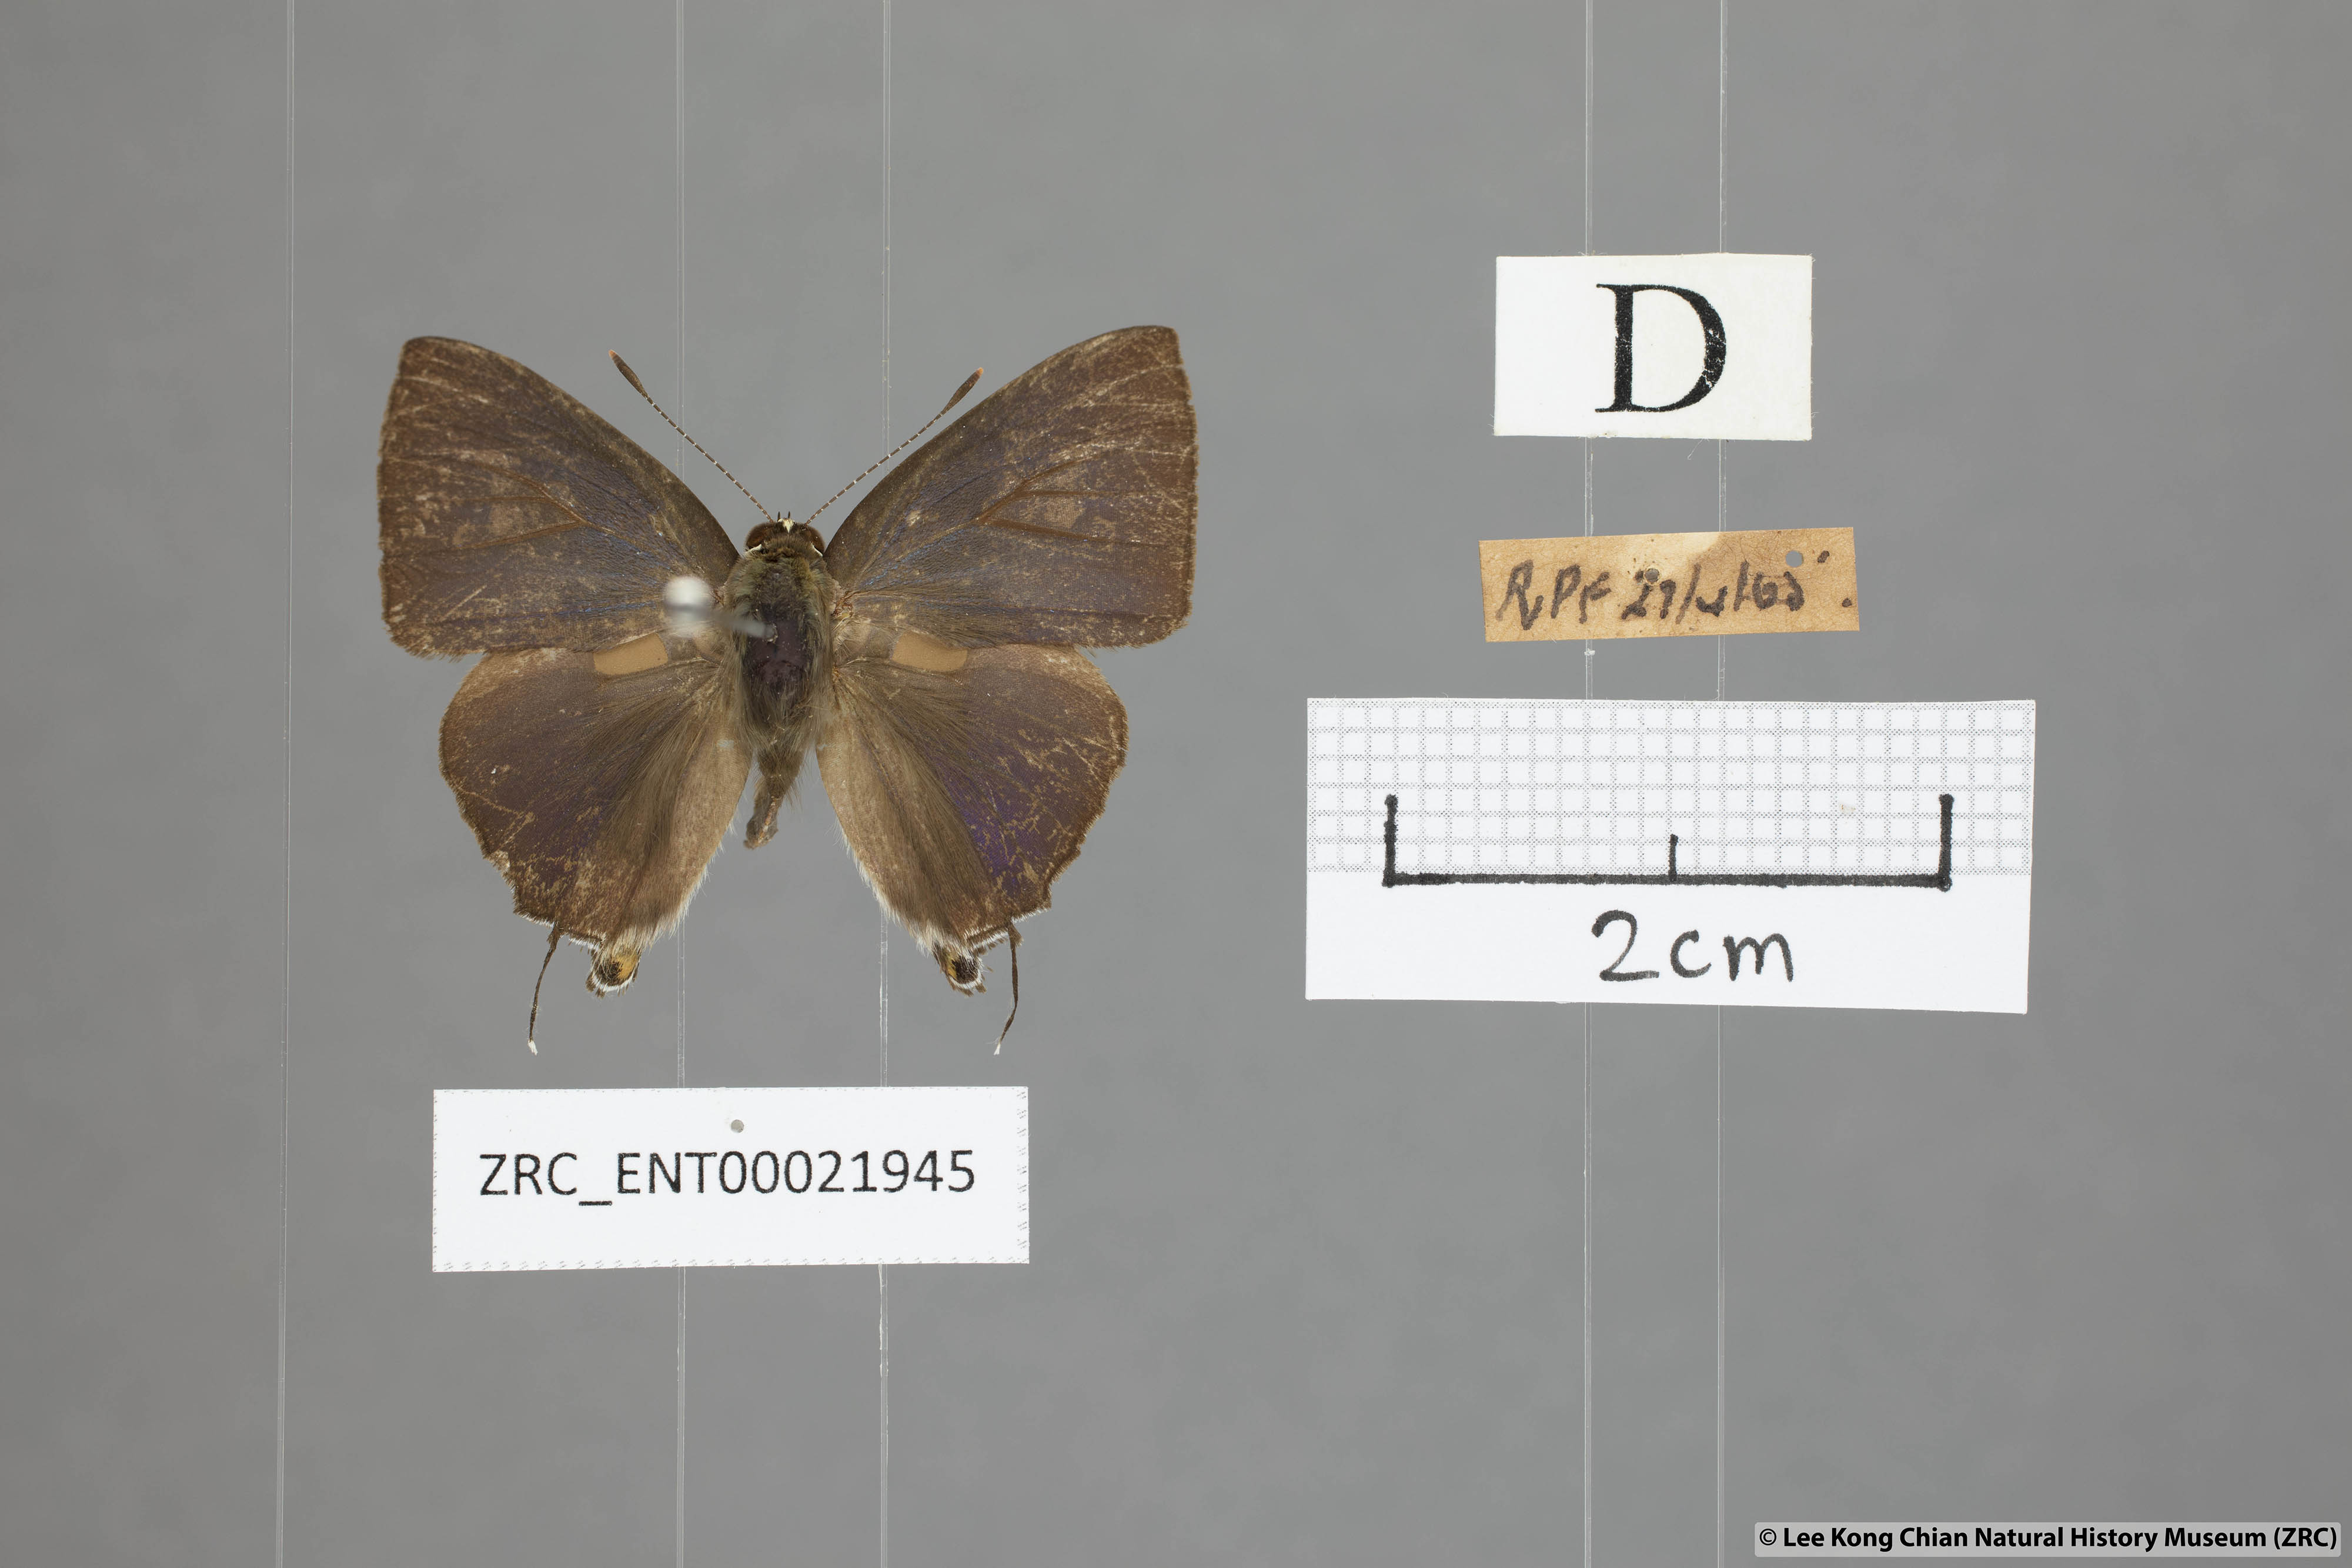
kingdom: Animalia
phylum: Arthropoda
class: Insecta
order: Lepidoptera
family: Lycaenidae
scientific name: Lycaenidae
